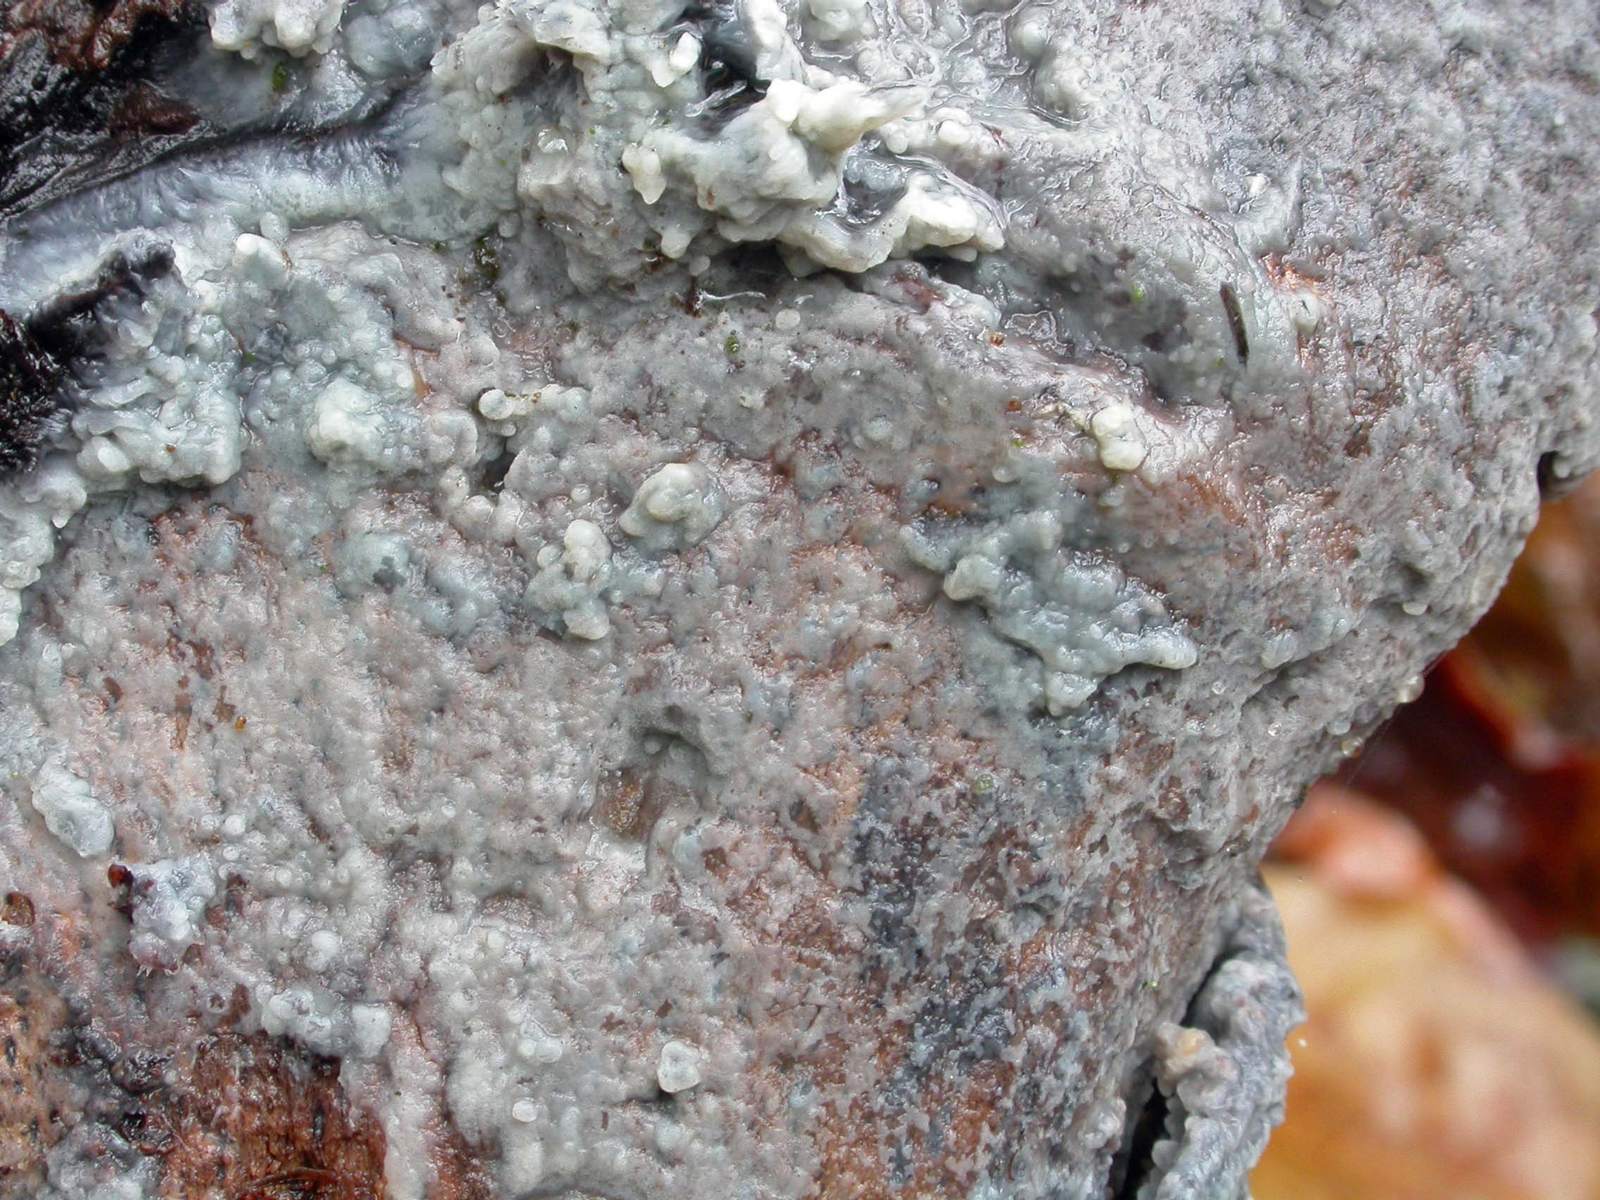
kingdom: Fungi
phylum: Basidiomycota
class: Agaricomycetes
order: Agaricales
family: Radulomycetaceae
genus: Radulomyces
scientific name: Radulomyces confluens
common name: glat naftalinskind
